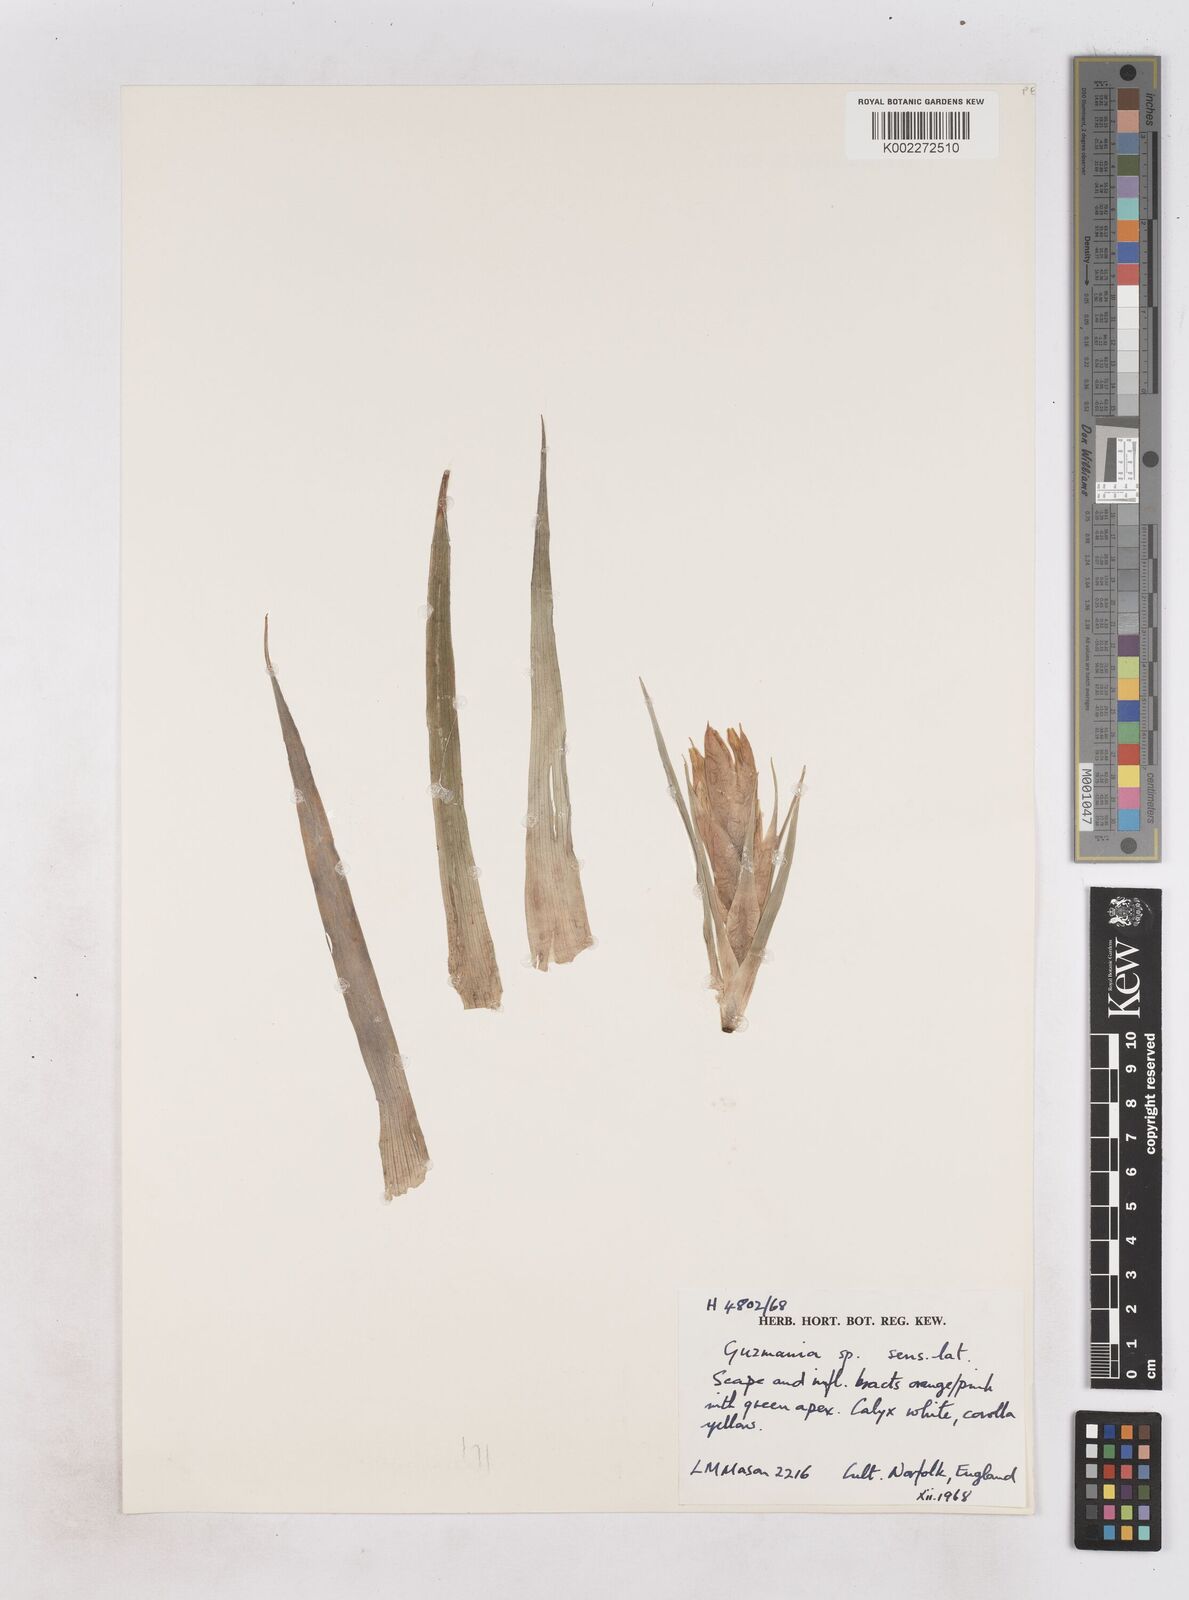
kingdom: Plantae
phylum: Tracheophyta
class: Liliopsida
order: Poales
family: Bromeliaceae
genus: Guzmania
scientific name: Guzmania
